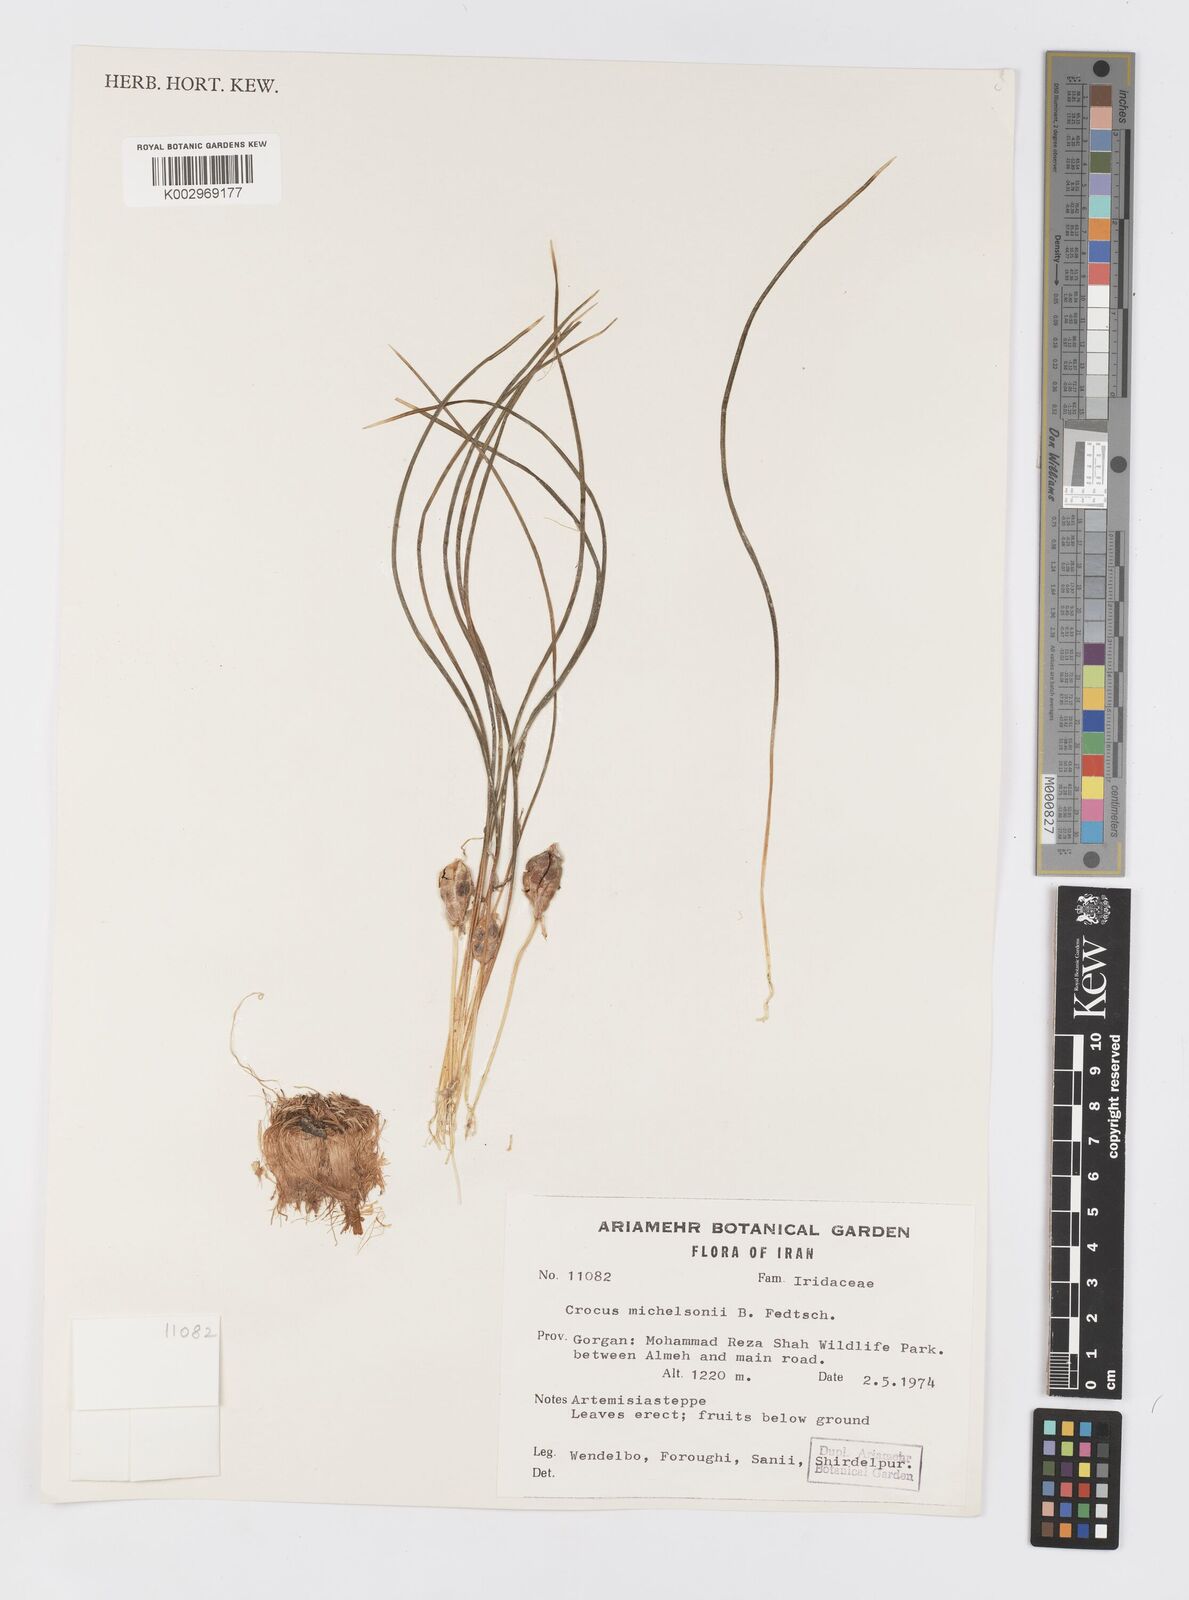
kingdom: Plantae
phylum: Tracheophyta
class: Liliopsida
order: Asparagales
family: Iridaceae
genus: Crocus
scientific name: Crocus michelsonii
